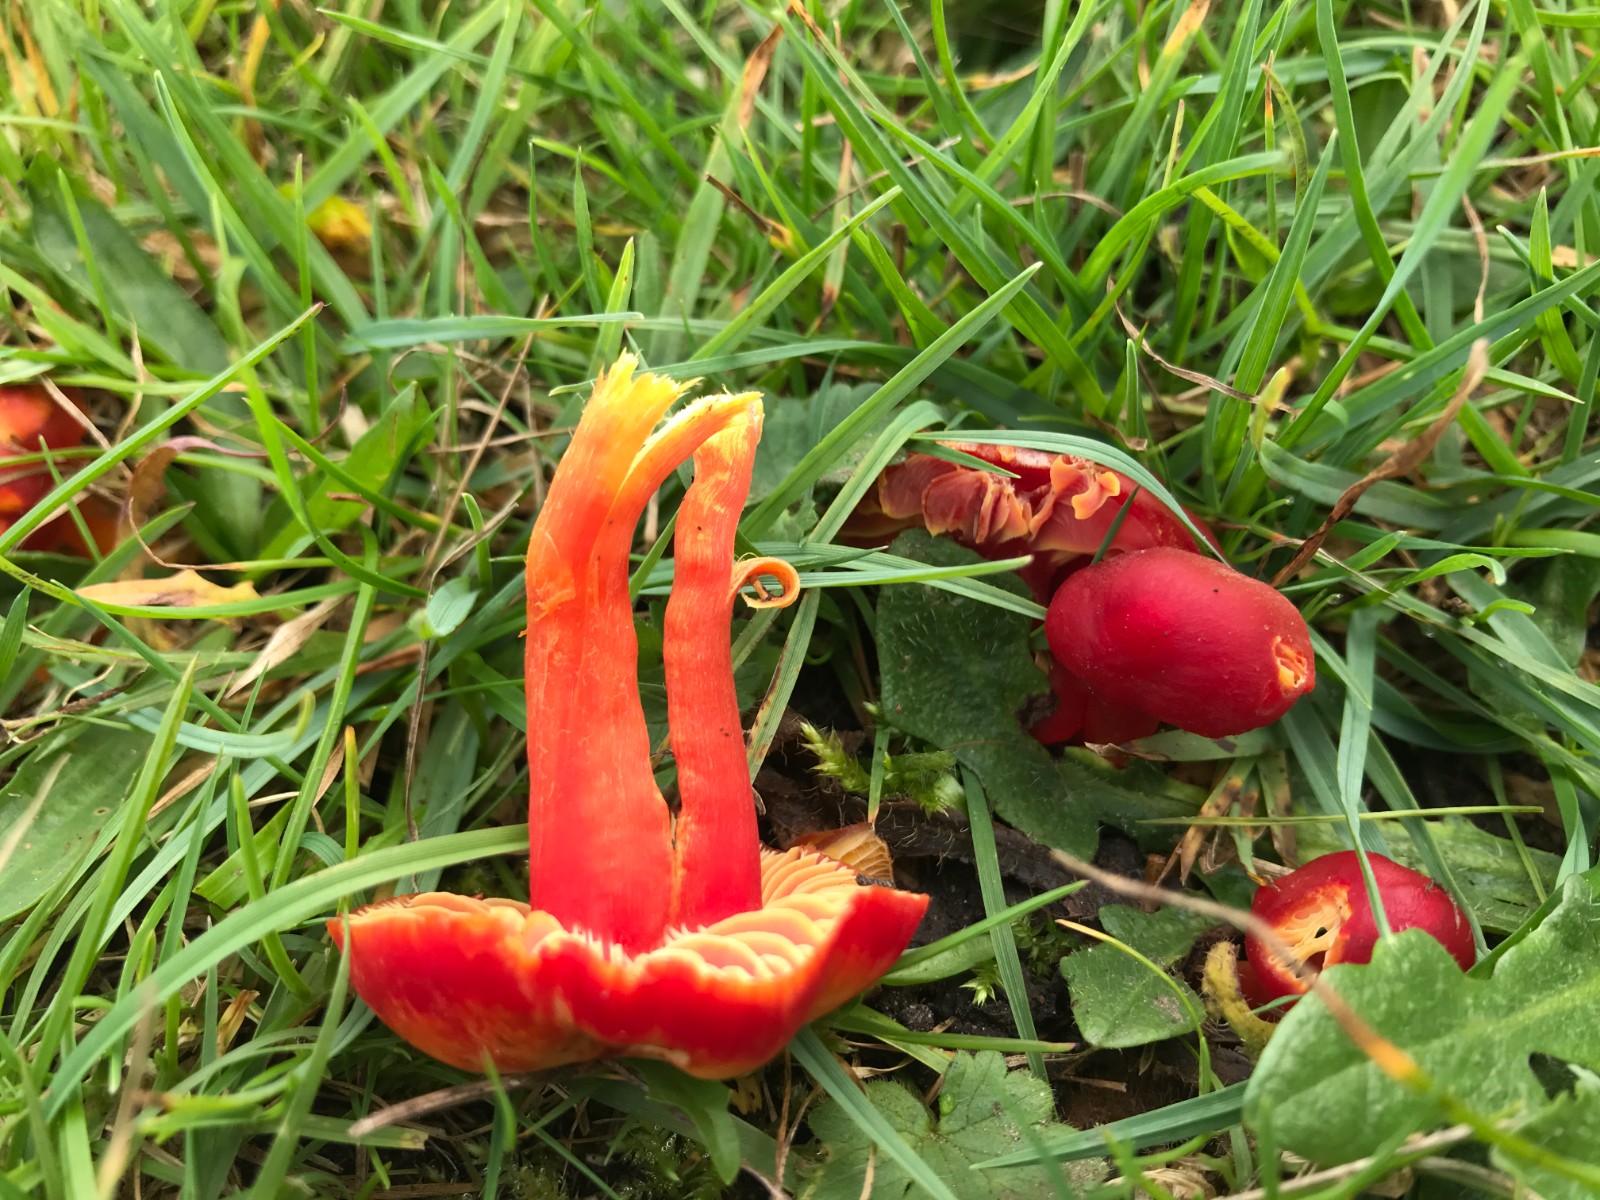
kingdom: Fungi
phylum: Basidiomycota
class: Agaricomycetes
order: Agaricales
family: Hygrophoraceae
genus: Hygrocybe
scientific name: Hygrocybe coccinea
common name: cinnober-vokshat
